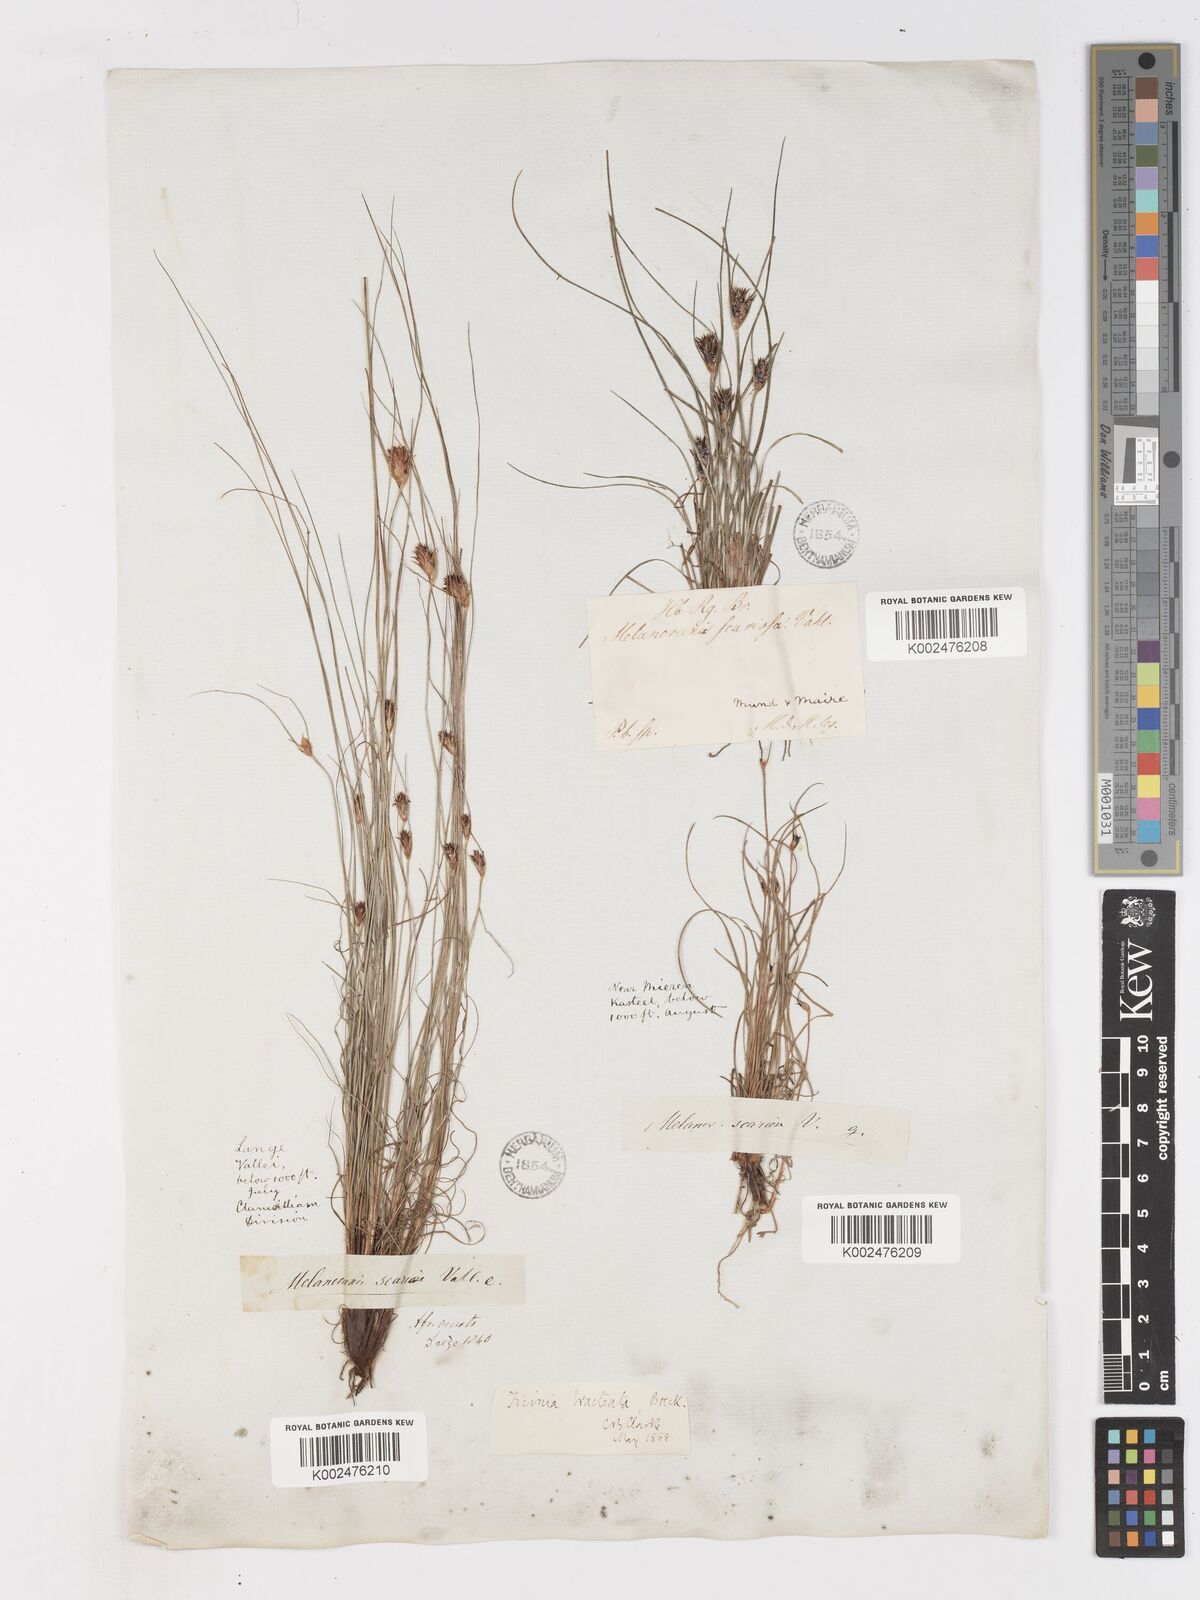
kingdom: Plantae
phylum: Tracheophyta
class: Liliopsida
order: Poales
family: Cyperaceae
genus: Ficinia
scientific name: Ficinia nigrescens
